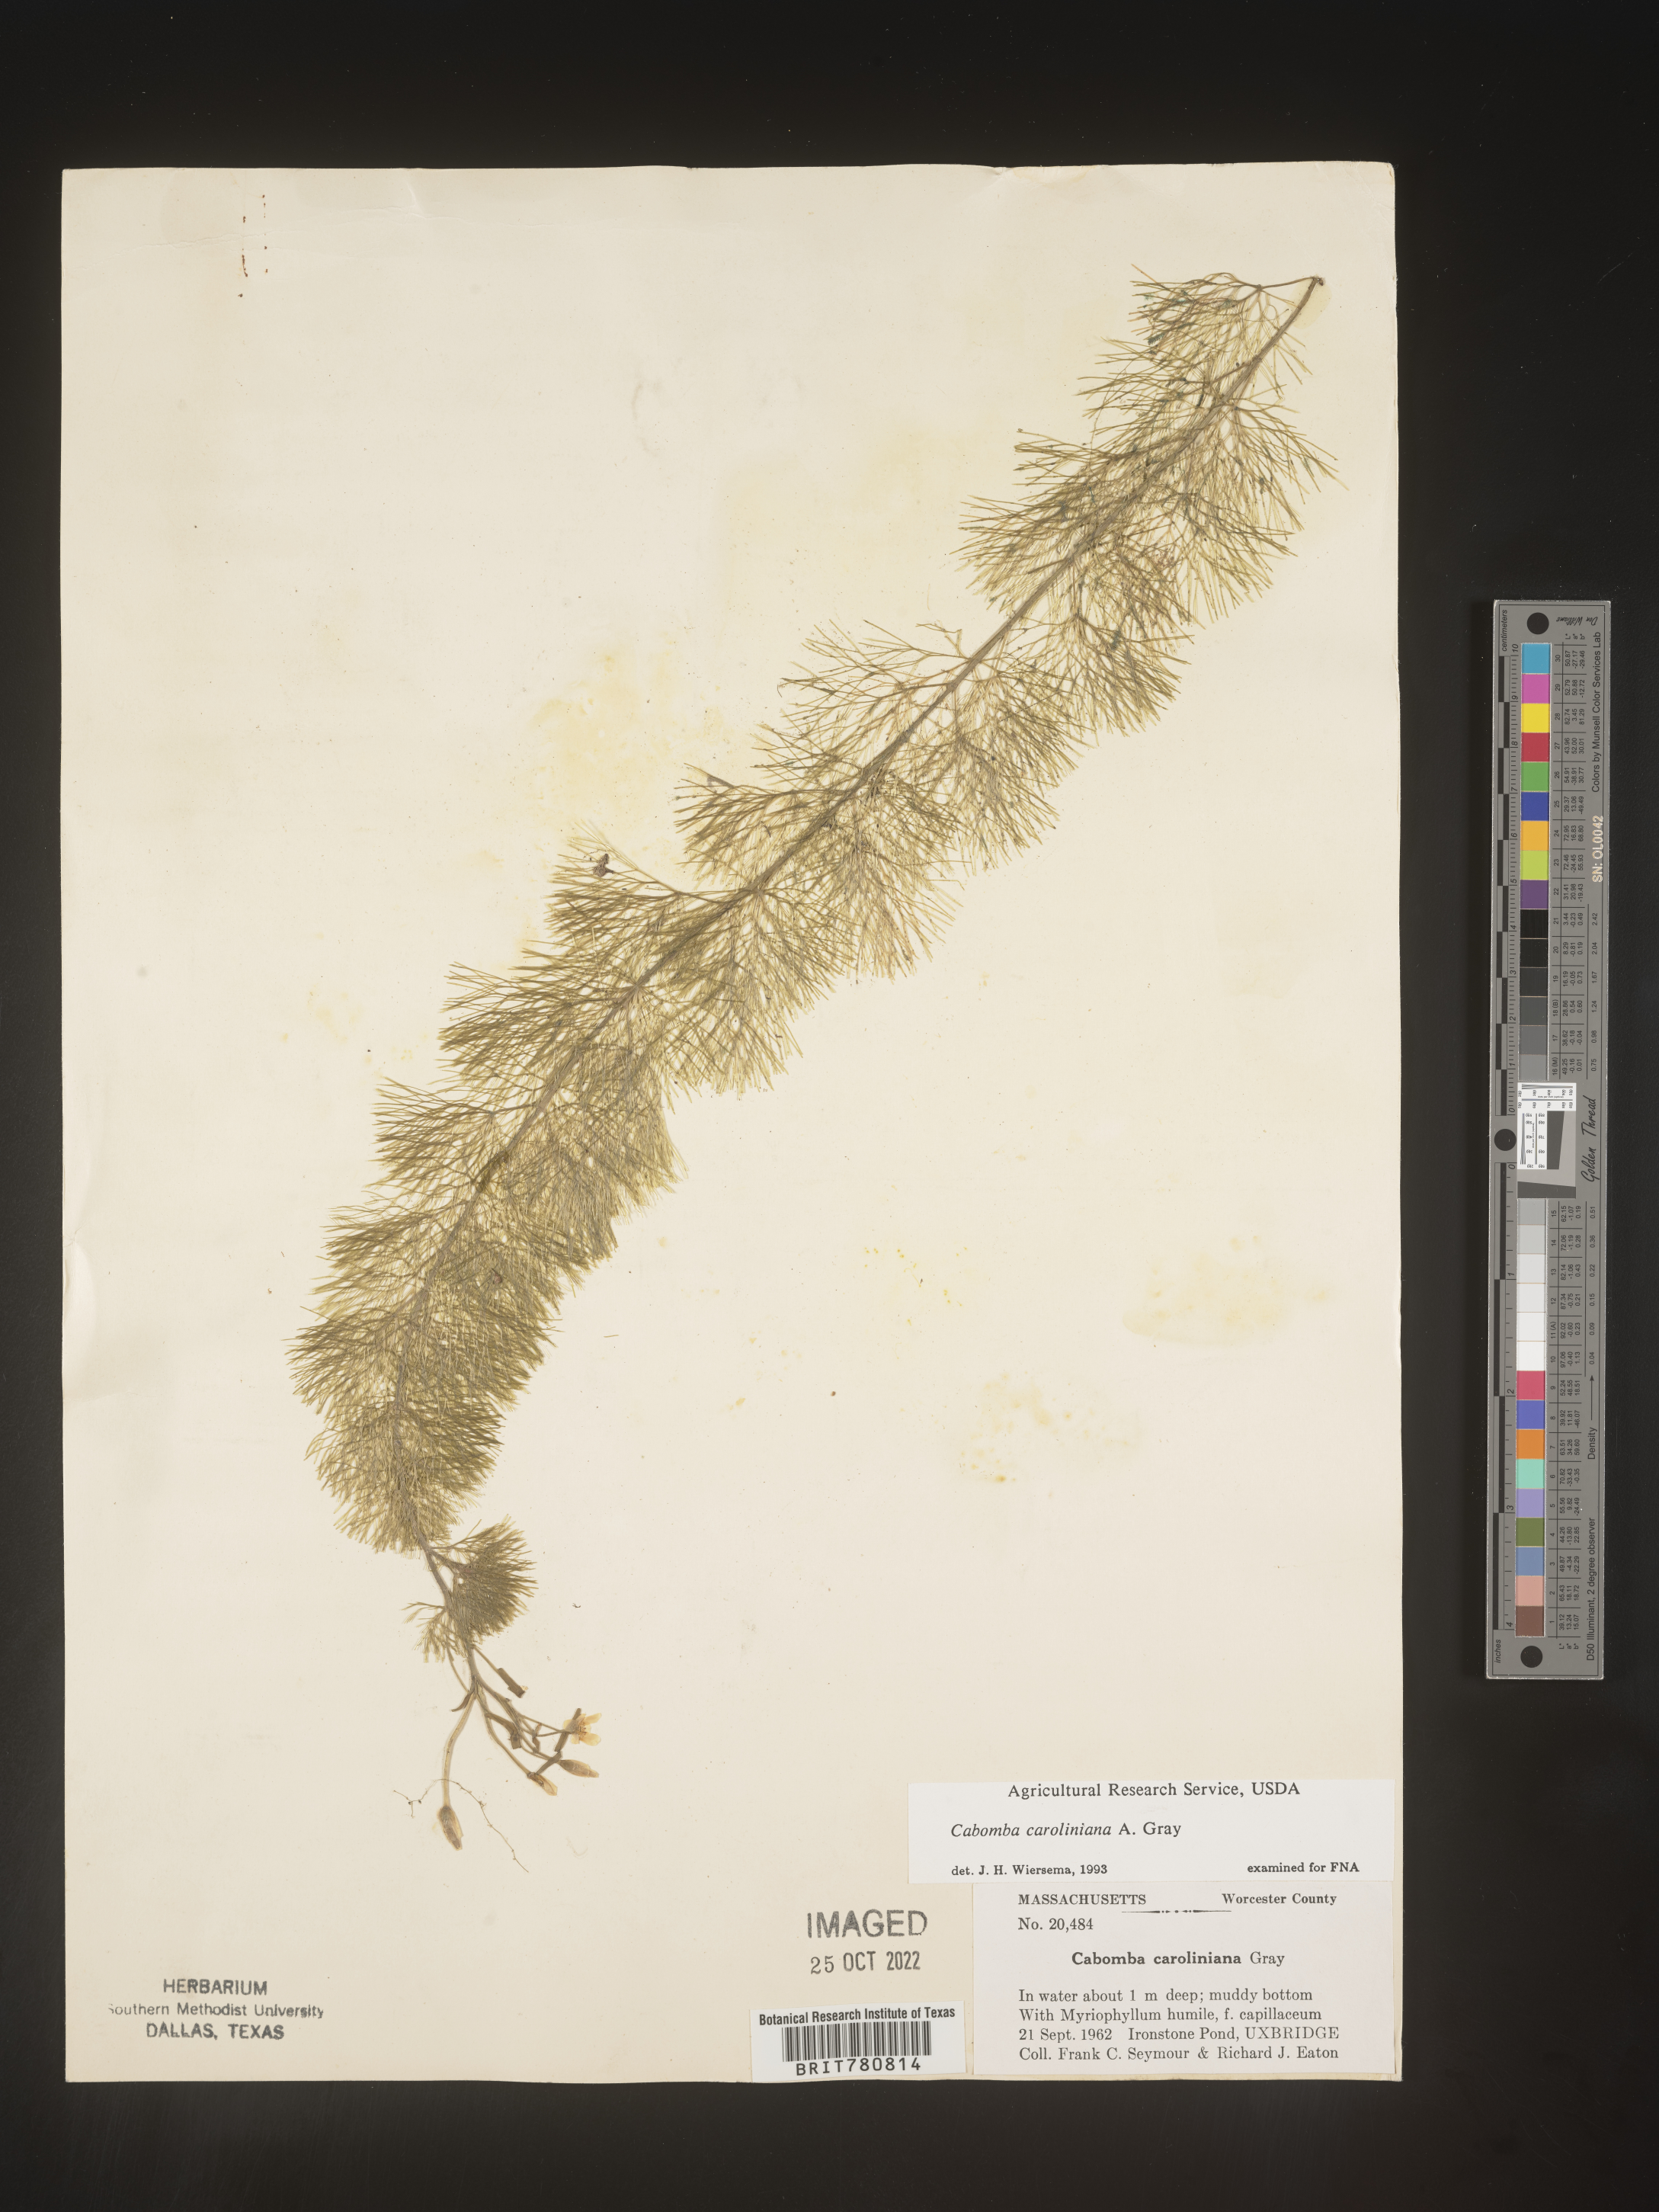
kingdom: Plantae
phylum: Tracheophyta
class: Magnoliopsida
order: Nymphaeales
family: Cabombaceae
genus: Cabomba
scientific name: Cabomba
